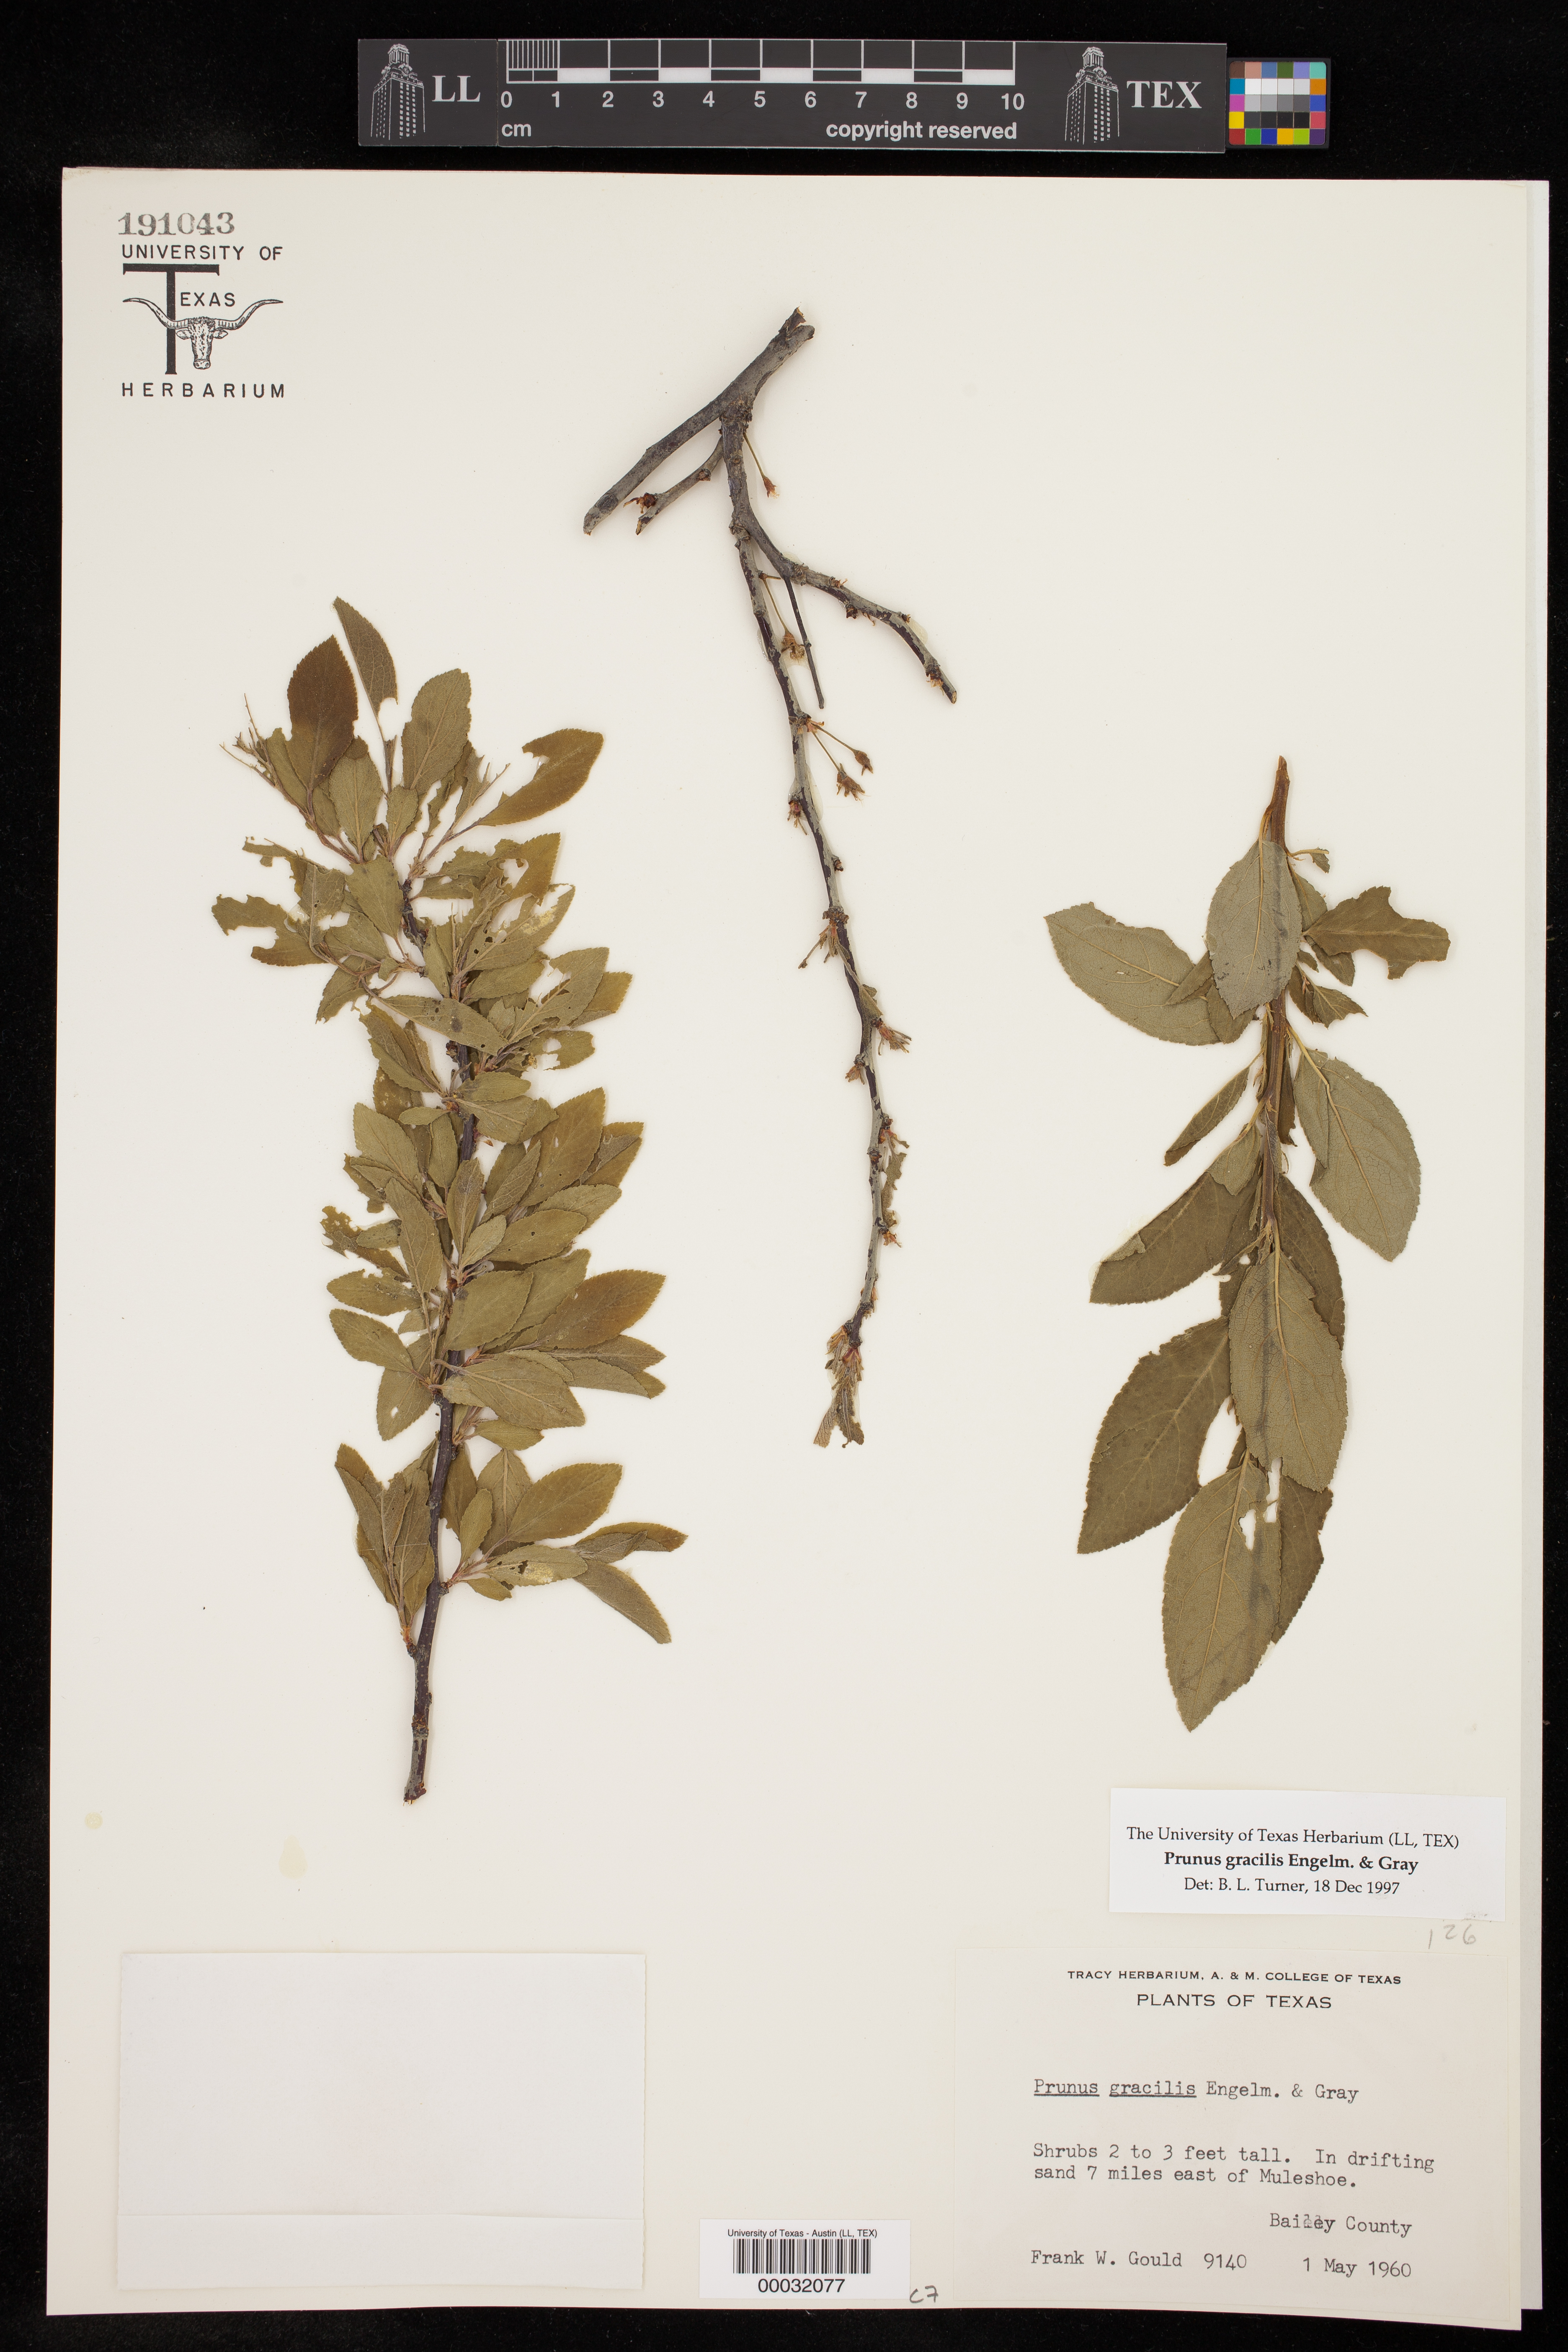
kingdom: Plantae
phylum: Tracheophyta
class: Magnoliopsida
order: Rosales
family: Rosaceae
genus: Prunus
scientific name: Prunus gracilis
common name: Oklahoma plum
